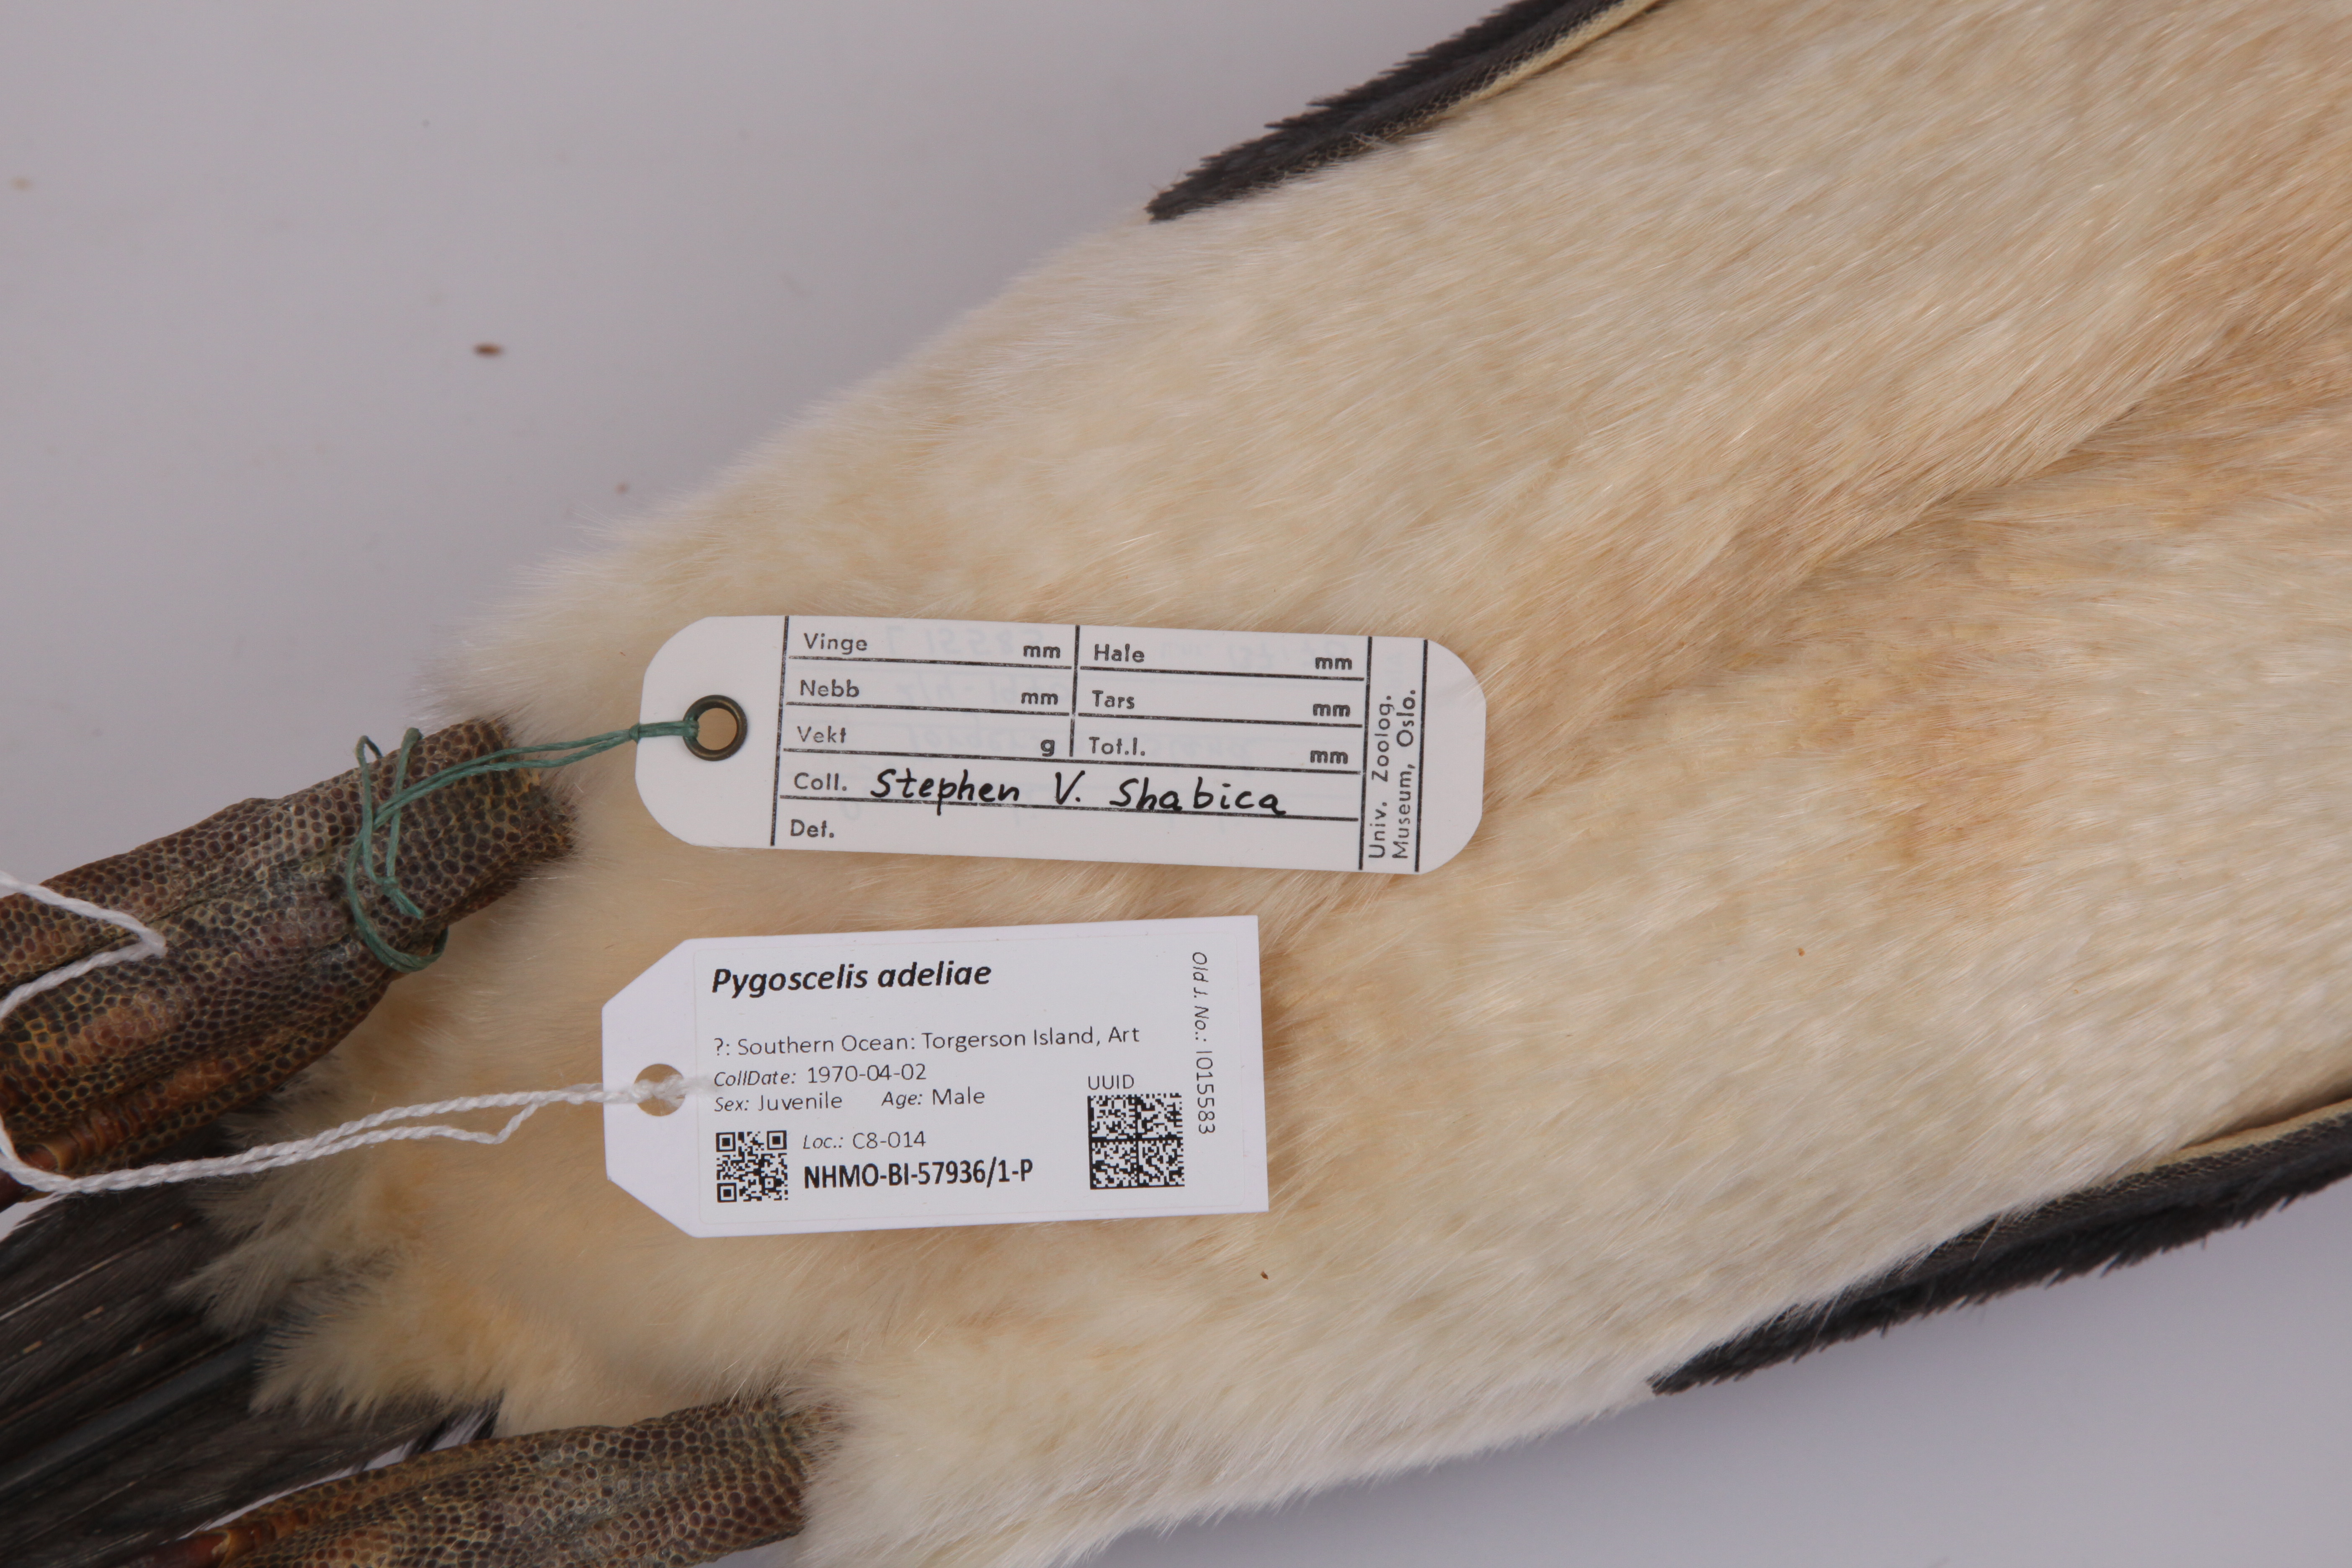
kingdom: Animalia
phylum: Chordata
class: Aves
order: Sphenisciformes
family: Spheniscidae
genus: Pygoscelis
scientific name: Pygoscelis adeliae
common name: Adelie penguin
